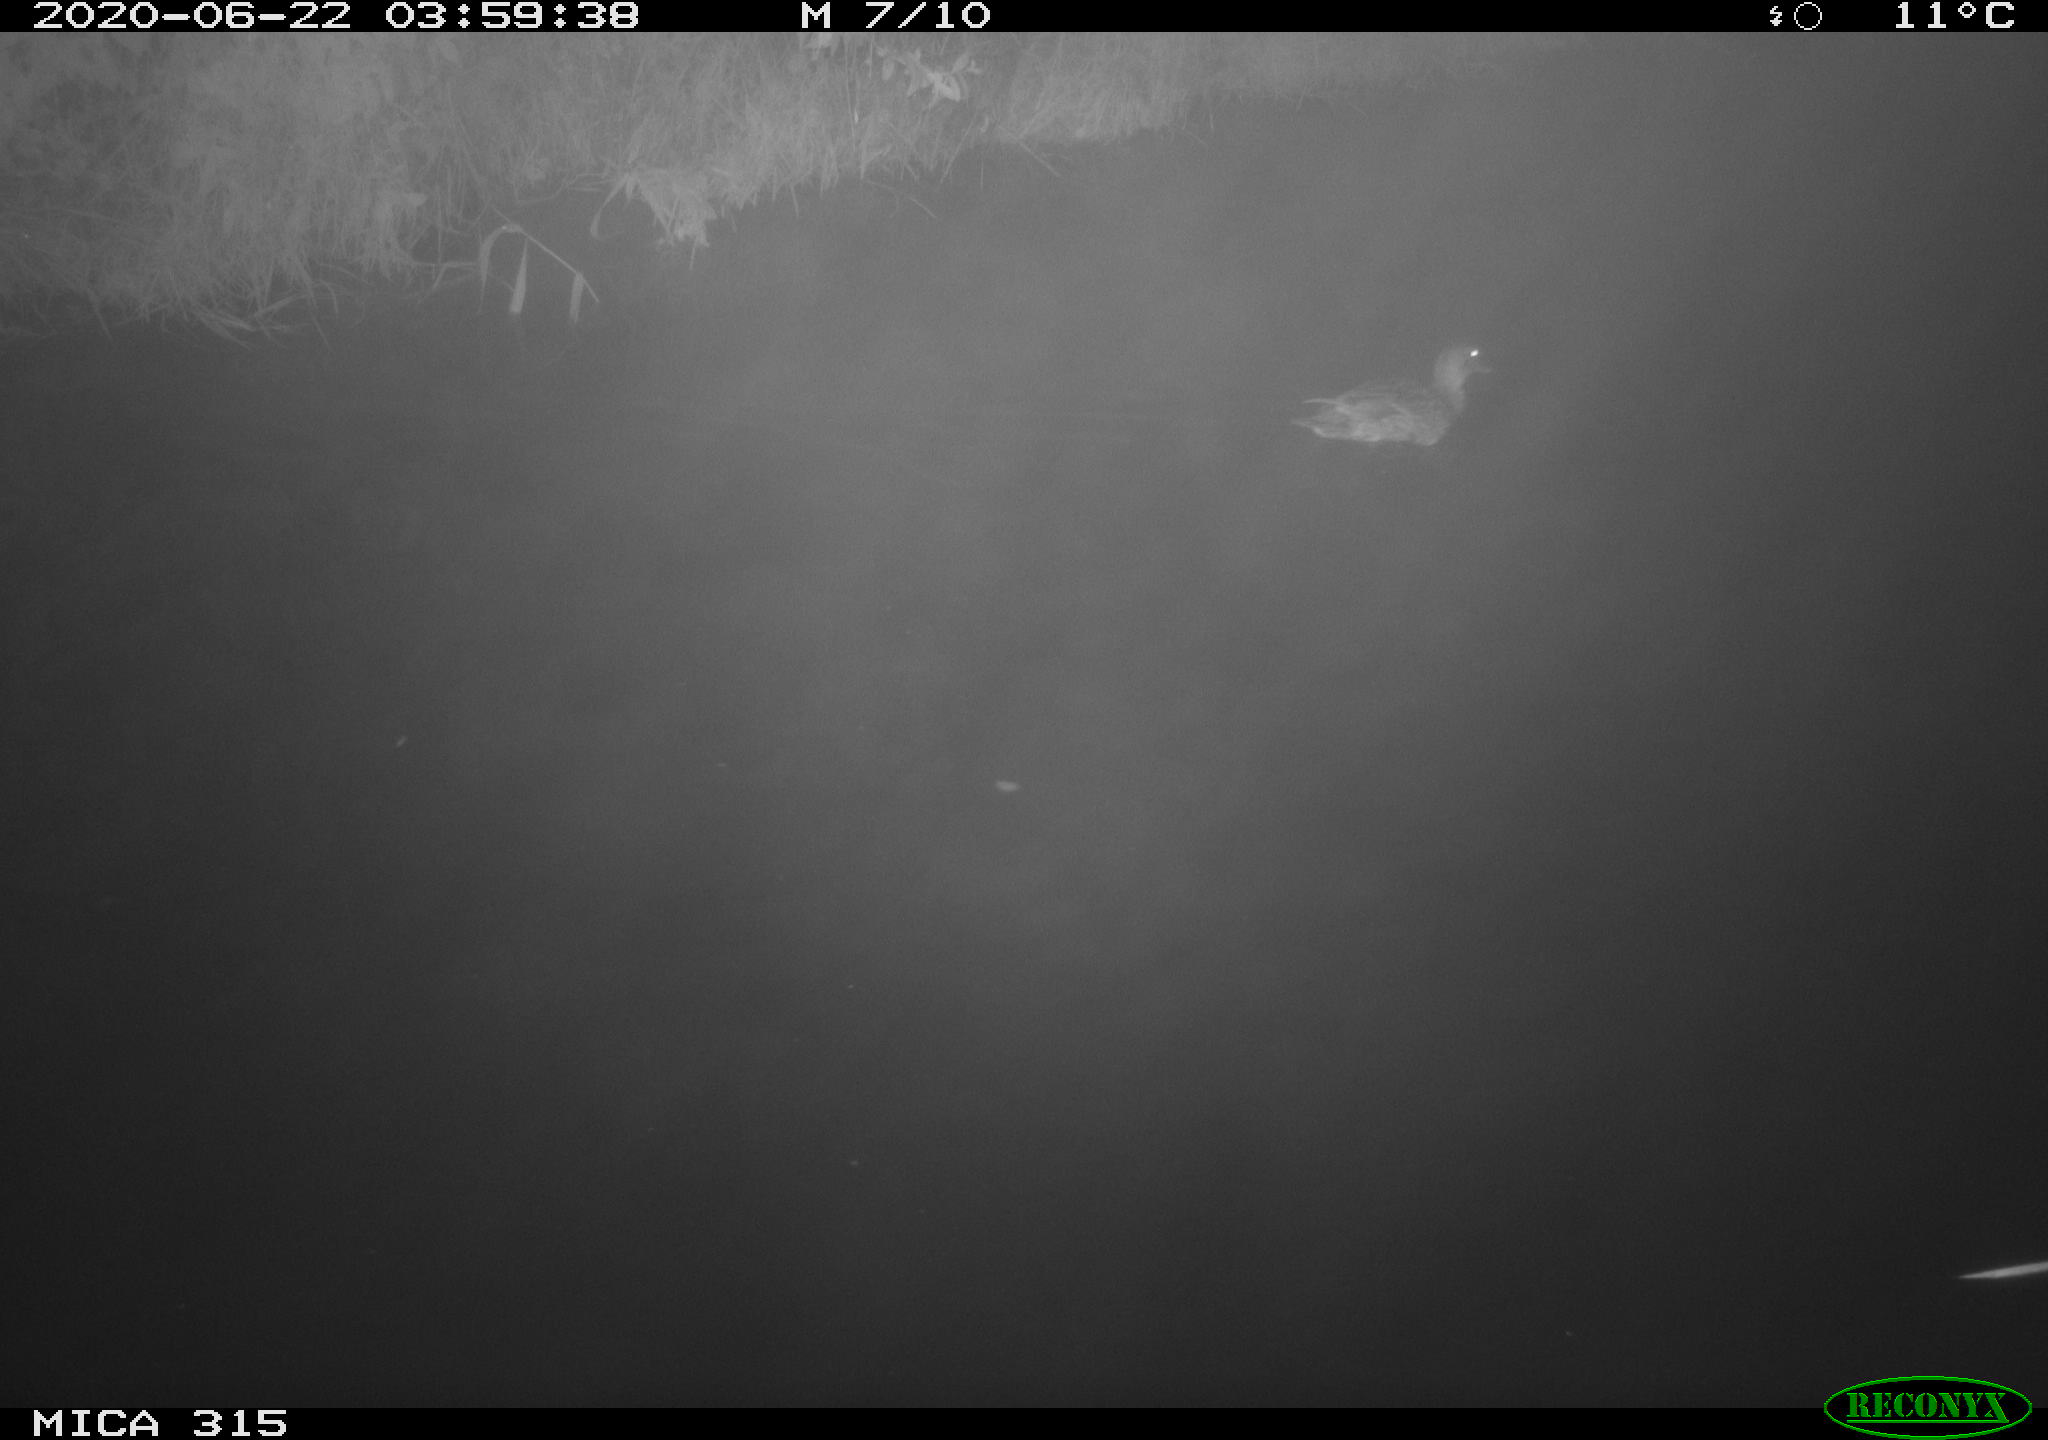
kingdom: Animalia
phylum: Chordata
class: Aves
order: Anseriformes
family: Anatidae
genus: Anas
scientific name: Anas platyrhynchos
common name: Mallard
